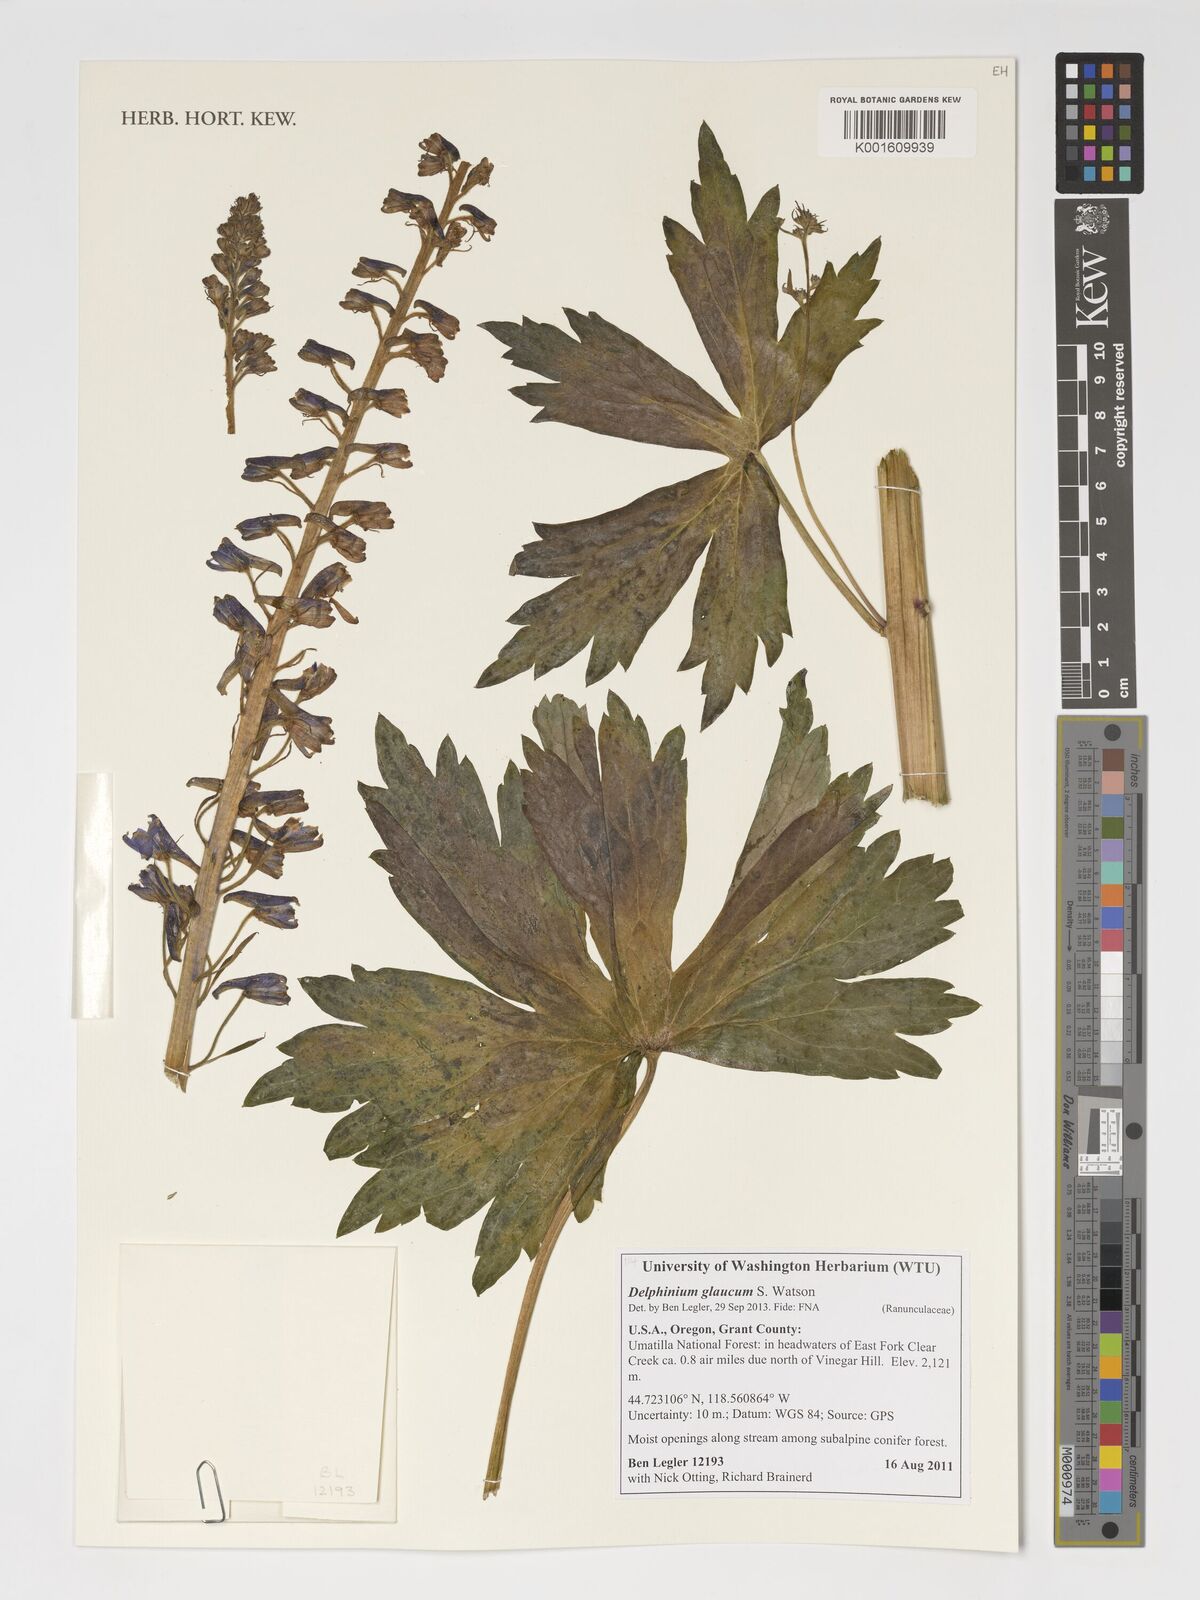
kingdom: Plantae
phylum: Tracheophyta
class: Magnoliopsida
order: Ranunculales
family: Ranunculaceae
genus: Delphinium
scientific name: Delphinium glaucum
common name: Brown's larkspur
